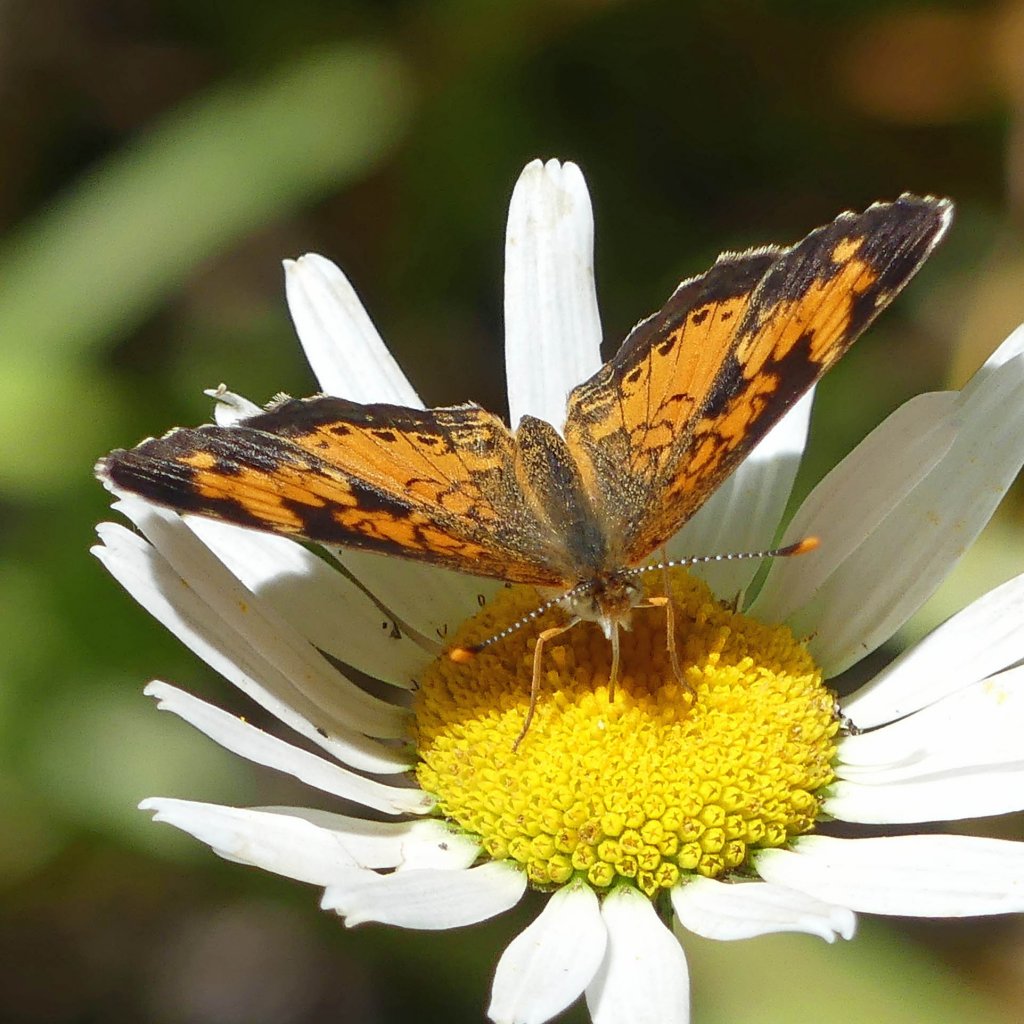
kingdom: Animalia
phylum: Arthropoda
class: Insecta
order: Lepidoptera
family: Nymphalidae
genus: Phyciodes
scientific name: Phyciodes tharos
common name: Northern Crescent
